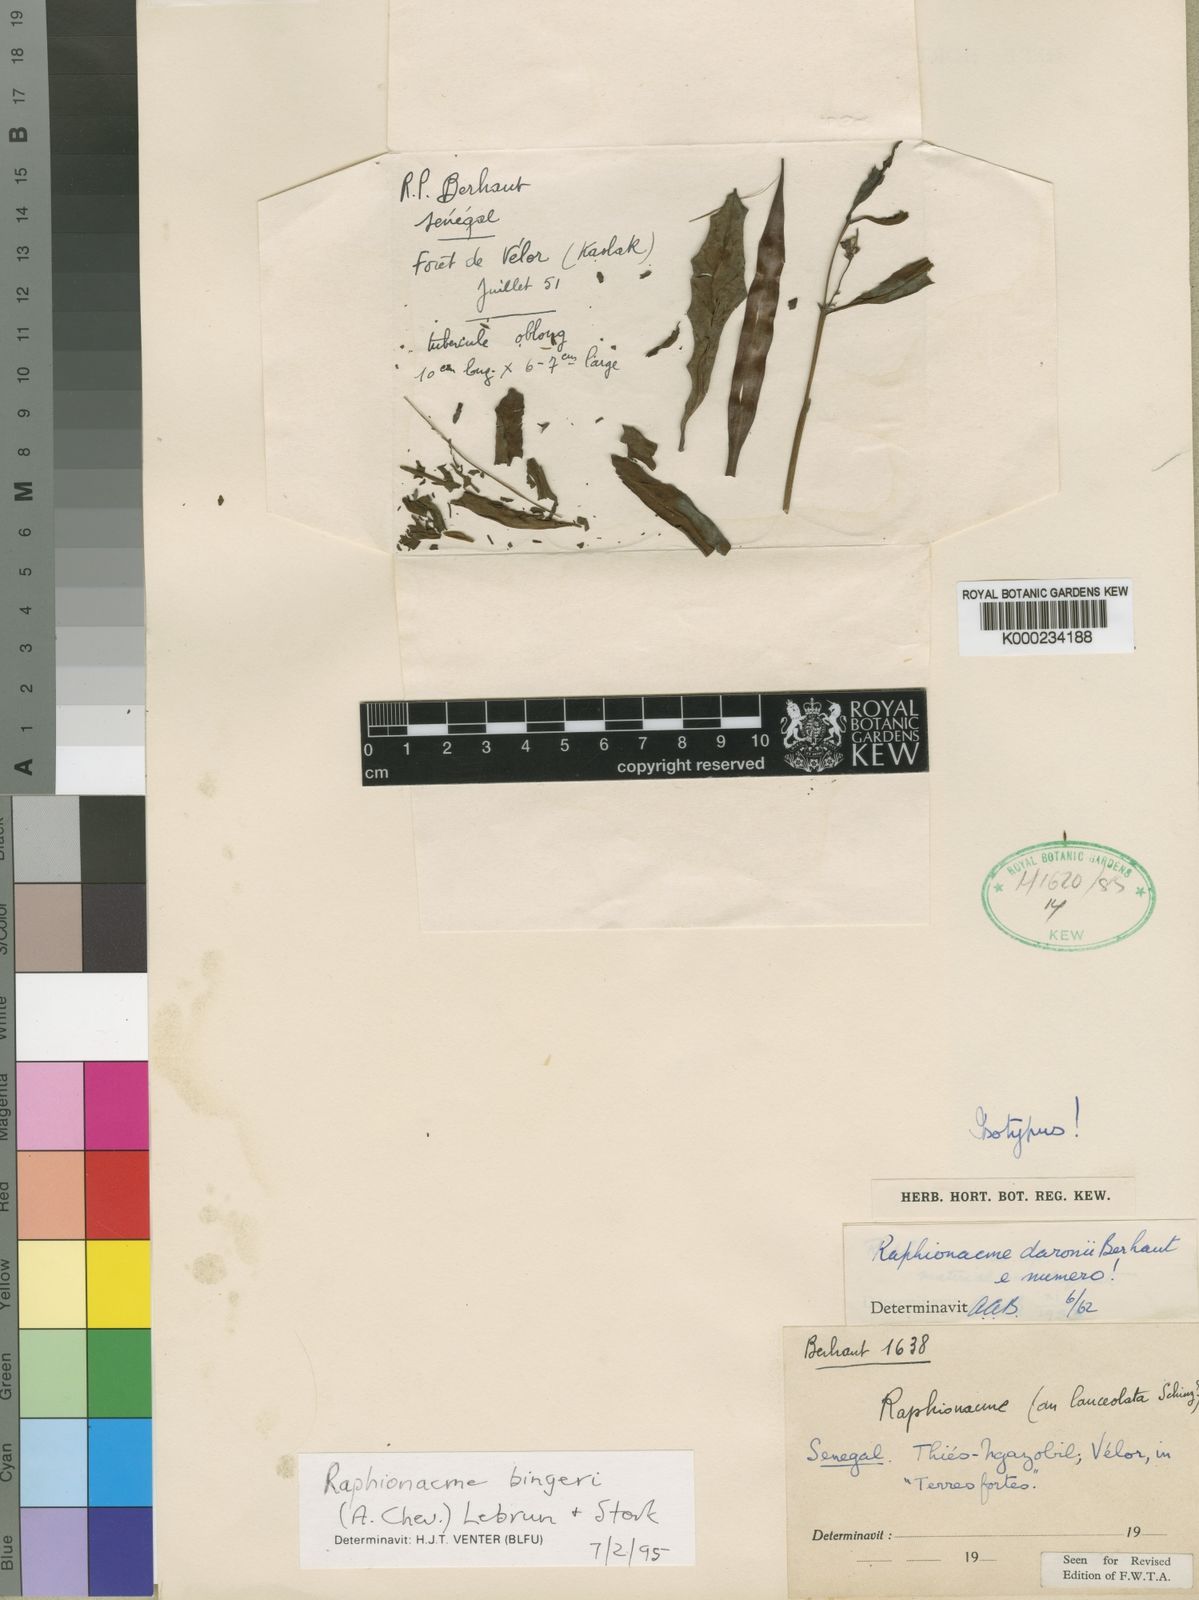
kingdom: Plantae
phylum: Tracheophyta
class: Magnoliopsida
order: Gentianales
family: Apocynaceae
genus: Raphionacme
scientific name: Raphionacme splendens
